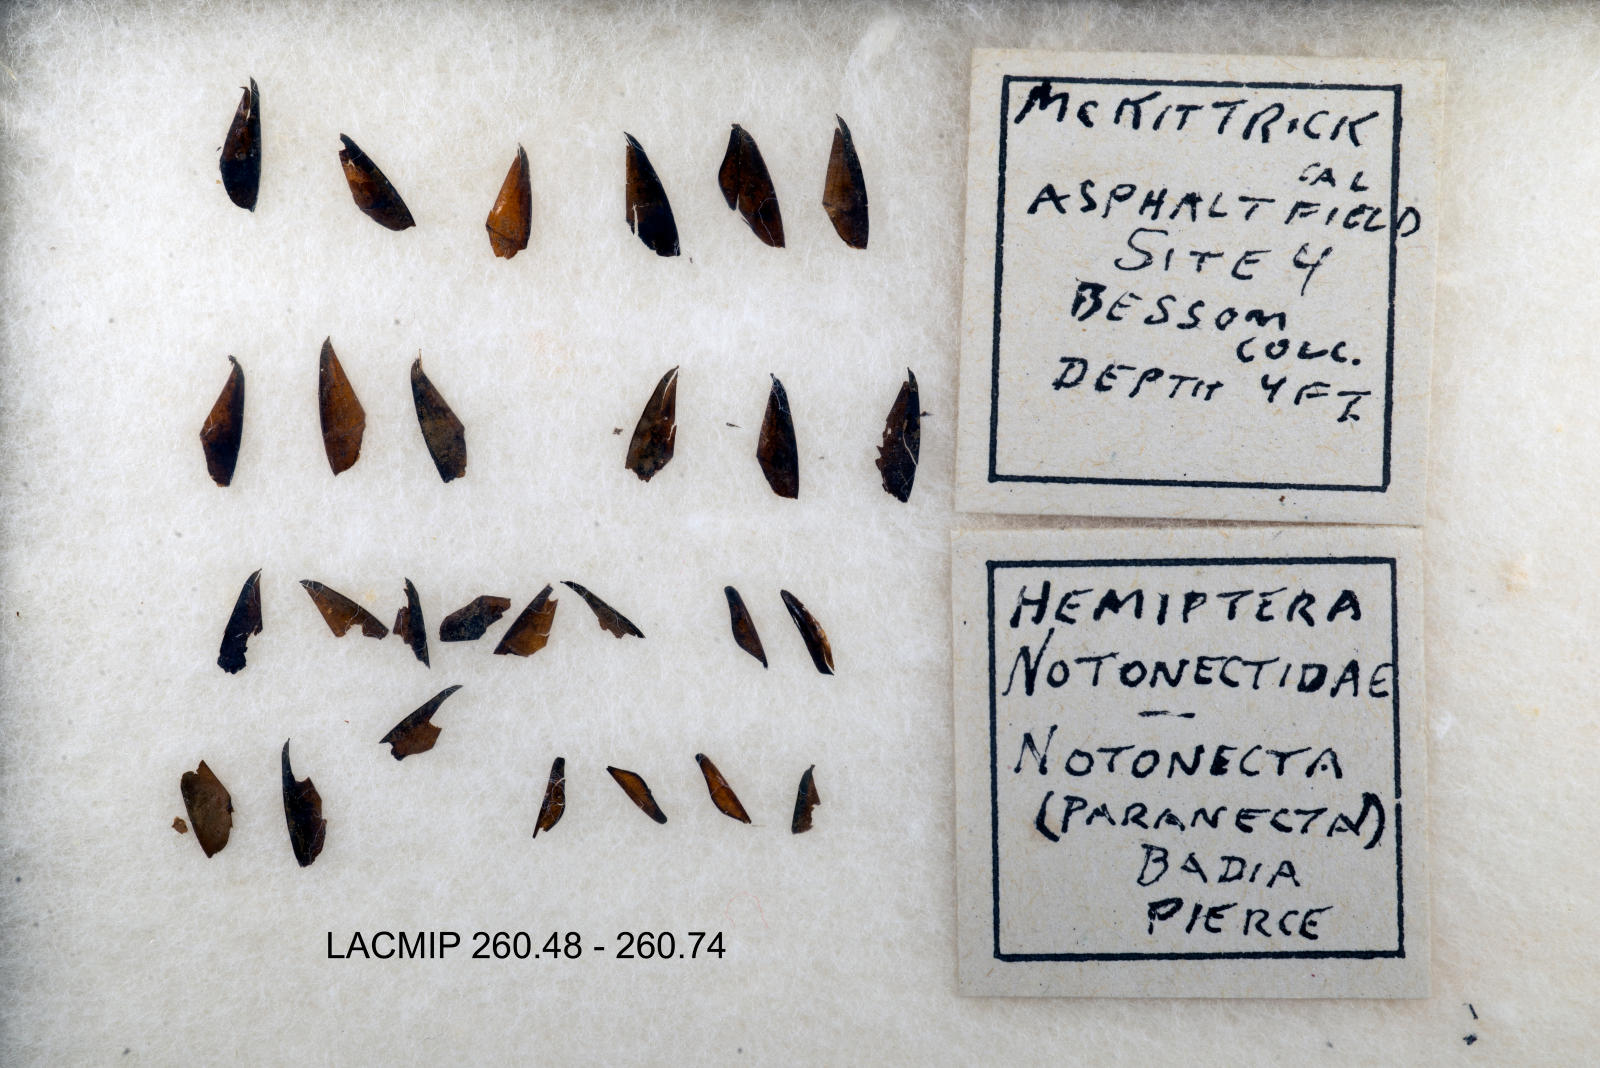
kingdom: Animalia
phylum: Arthropoda
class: Insecta
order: Hemiptera
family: Notonectidae
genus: Notonecta
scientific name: Notonecta unifasciata
